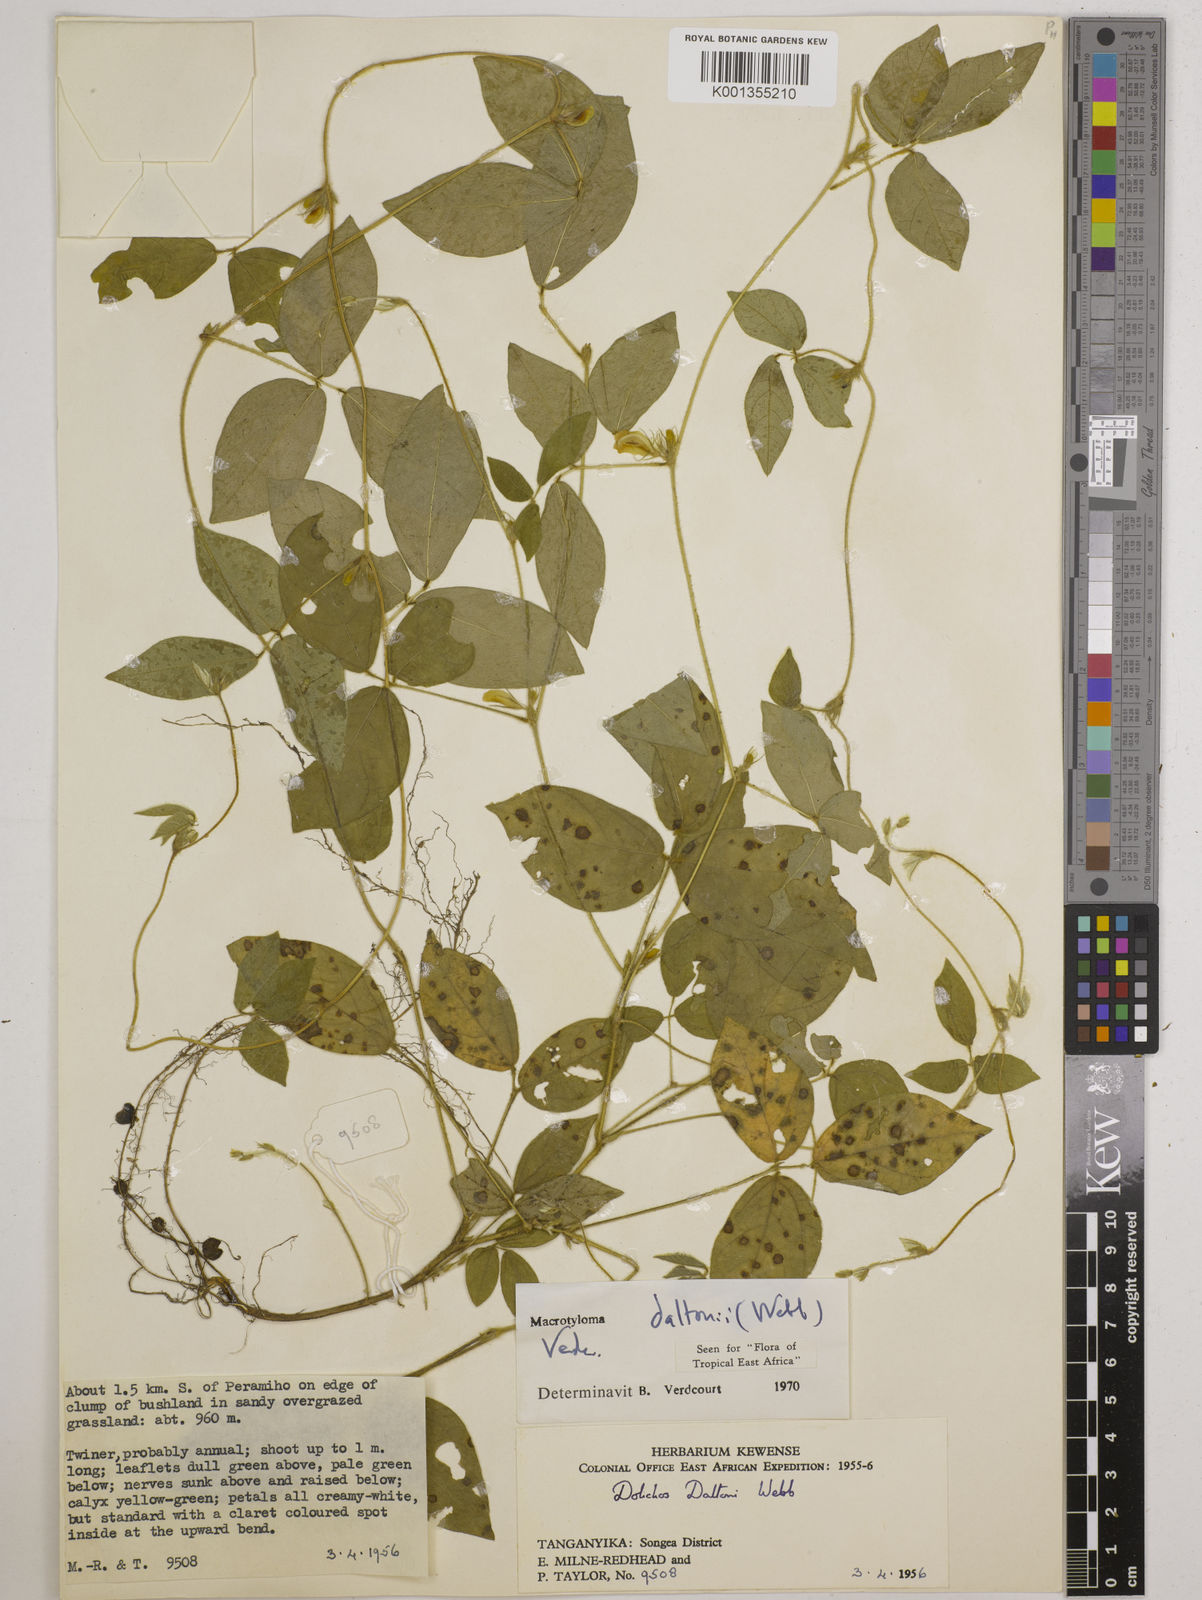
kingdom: Plantae
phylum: Tracheophyta
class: Magnoliopsida
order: Fabales
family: Fabaceae
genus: Macrotyloma
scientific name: Macrotyloma daltonii
